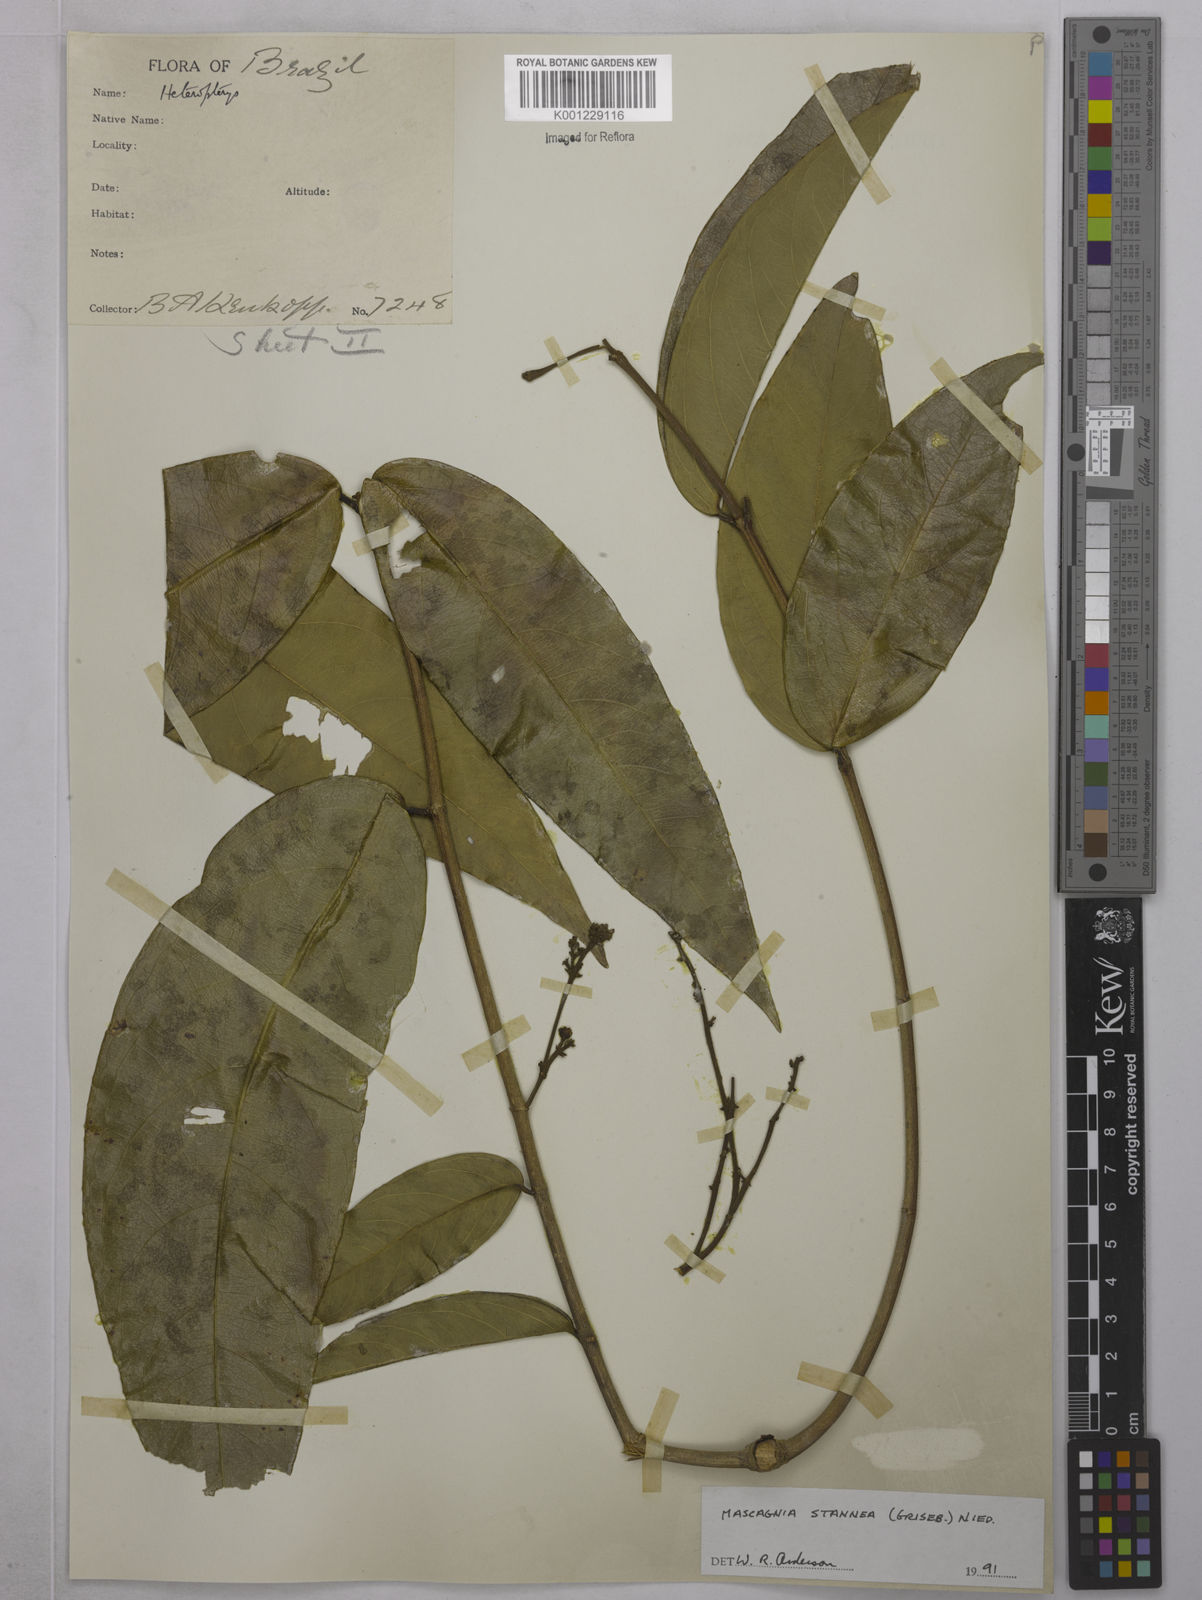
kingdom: Plantae
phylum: Tracheophyta
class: Magnoliopsida
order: Malpighiales
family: Malpighiaceae
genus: Niedenzuella
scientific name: Niedenzuella stannea
